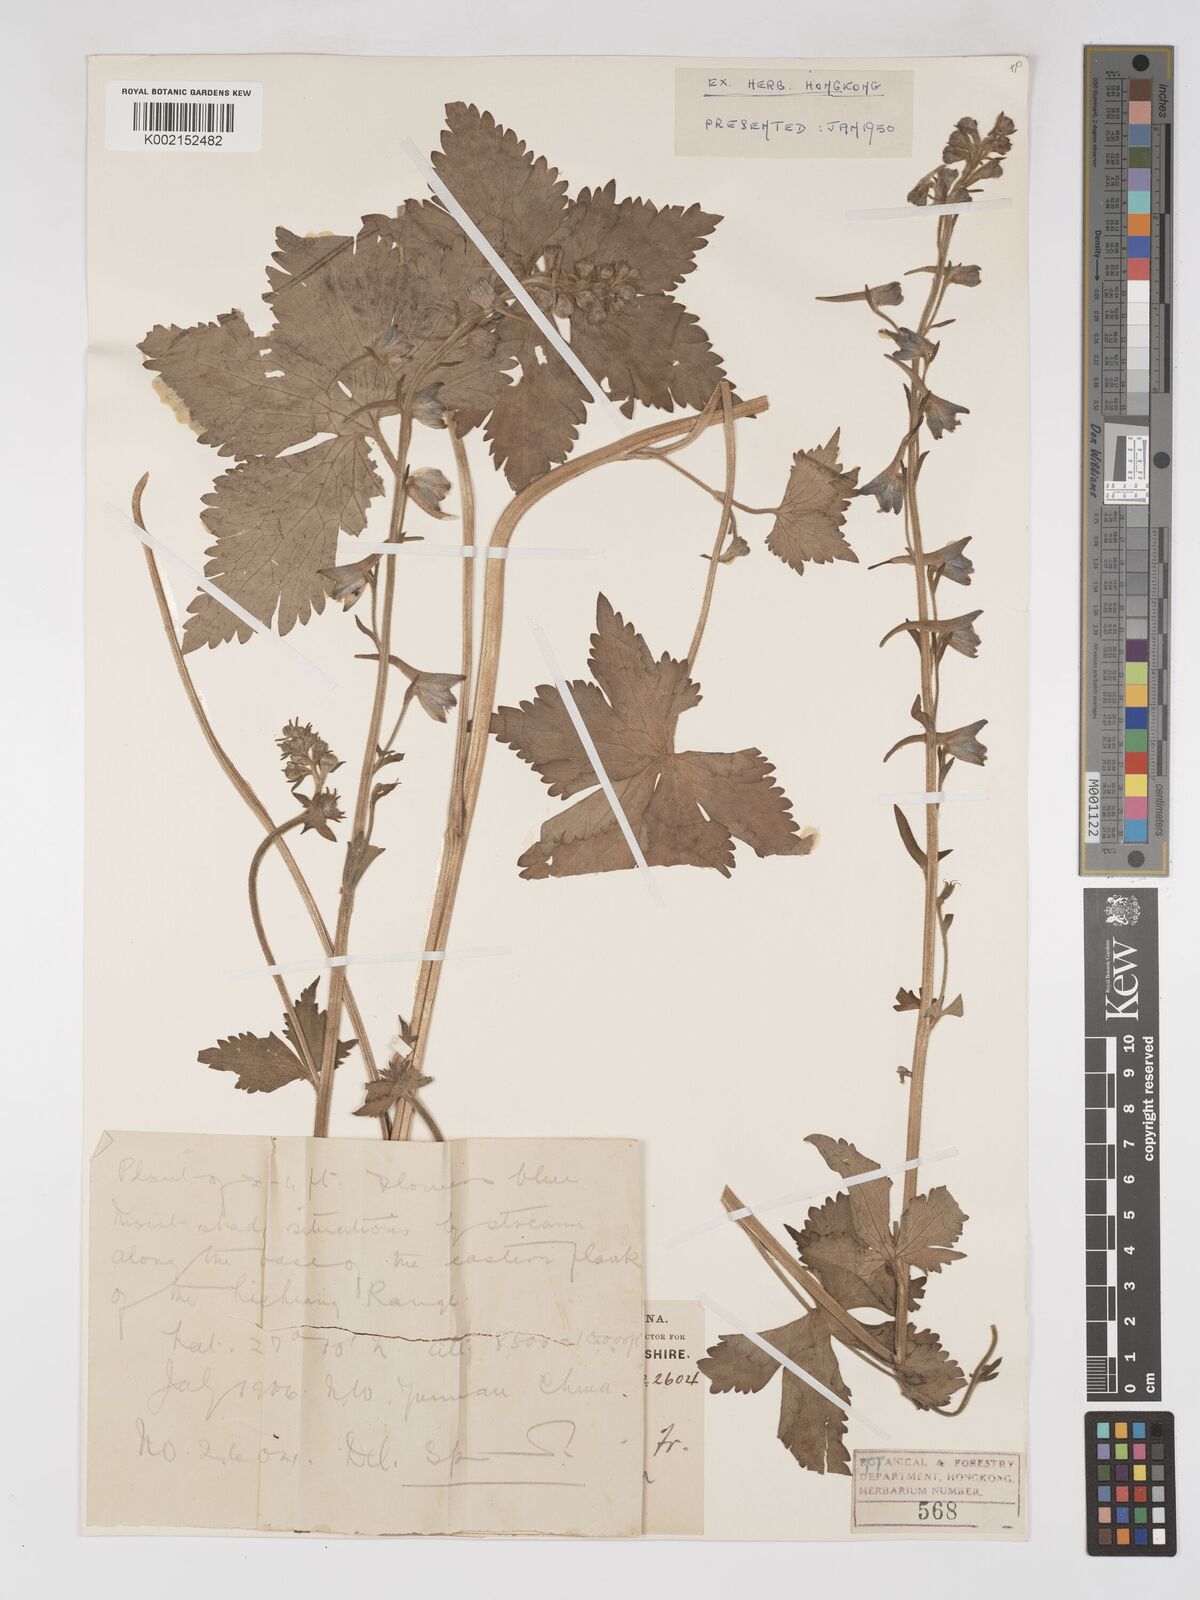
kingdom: Plantae
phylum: Tracheophyta
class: Magnoliopsida
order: Ranunculales
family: Ranunculaceae
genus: Delphinium
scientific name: Delphinium delavayi
